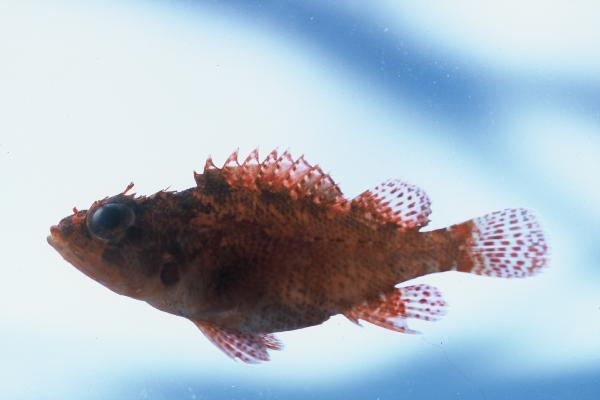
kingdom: Animalia
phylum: Chordata
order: Scorpaeniformes
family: Scorpaenidae
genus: Scorpaenodes
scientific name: Scorpaenodes evides
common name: Cheekspot scorpionfish
